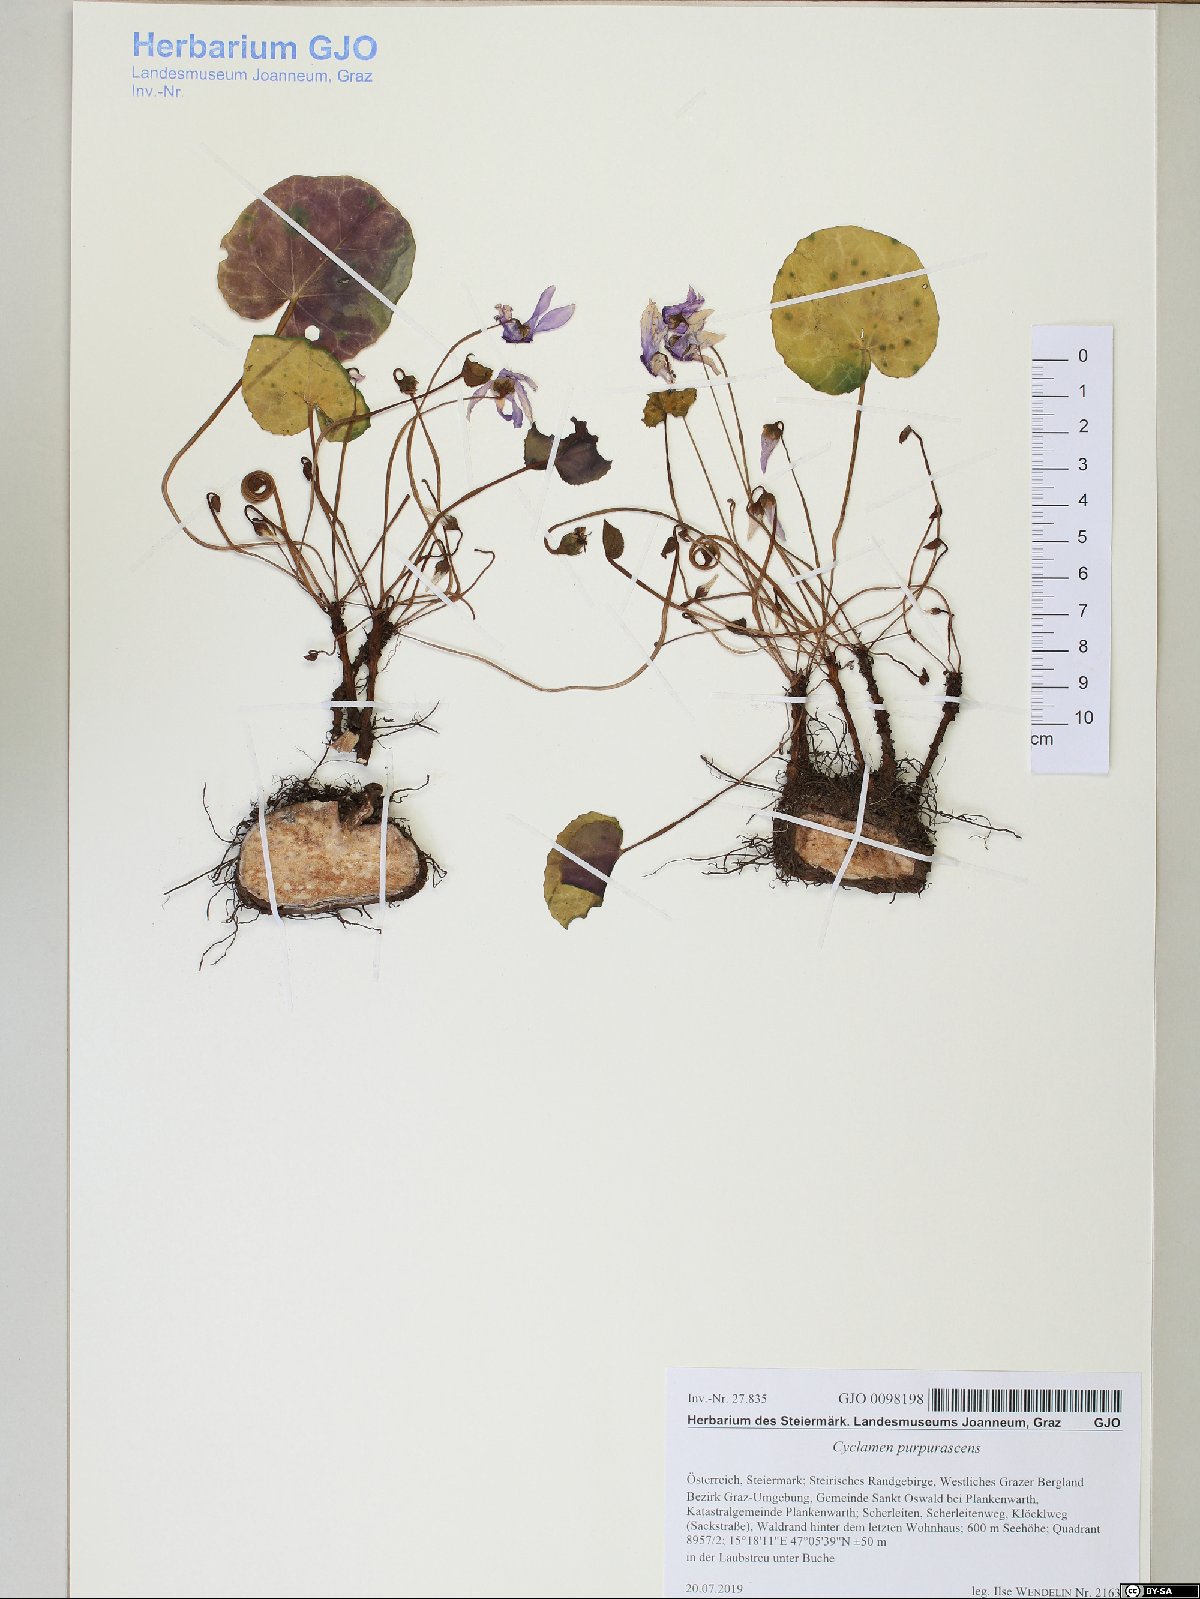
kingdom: Plantae
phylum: Tracheophyta
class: Magnoliopsida
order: Ericales
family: Primulaceae
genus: Cyclamen
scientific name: Cyclamen purpurascens
